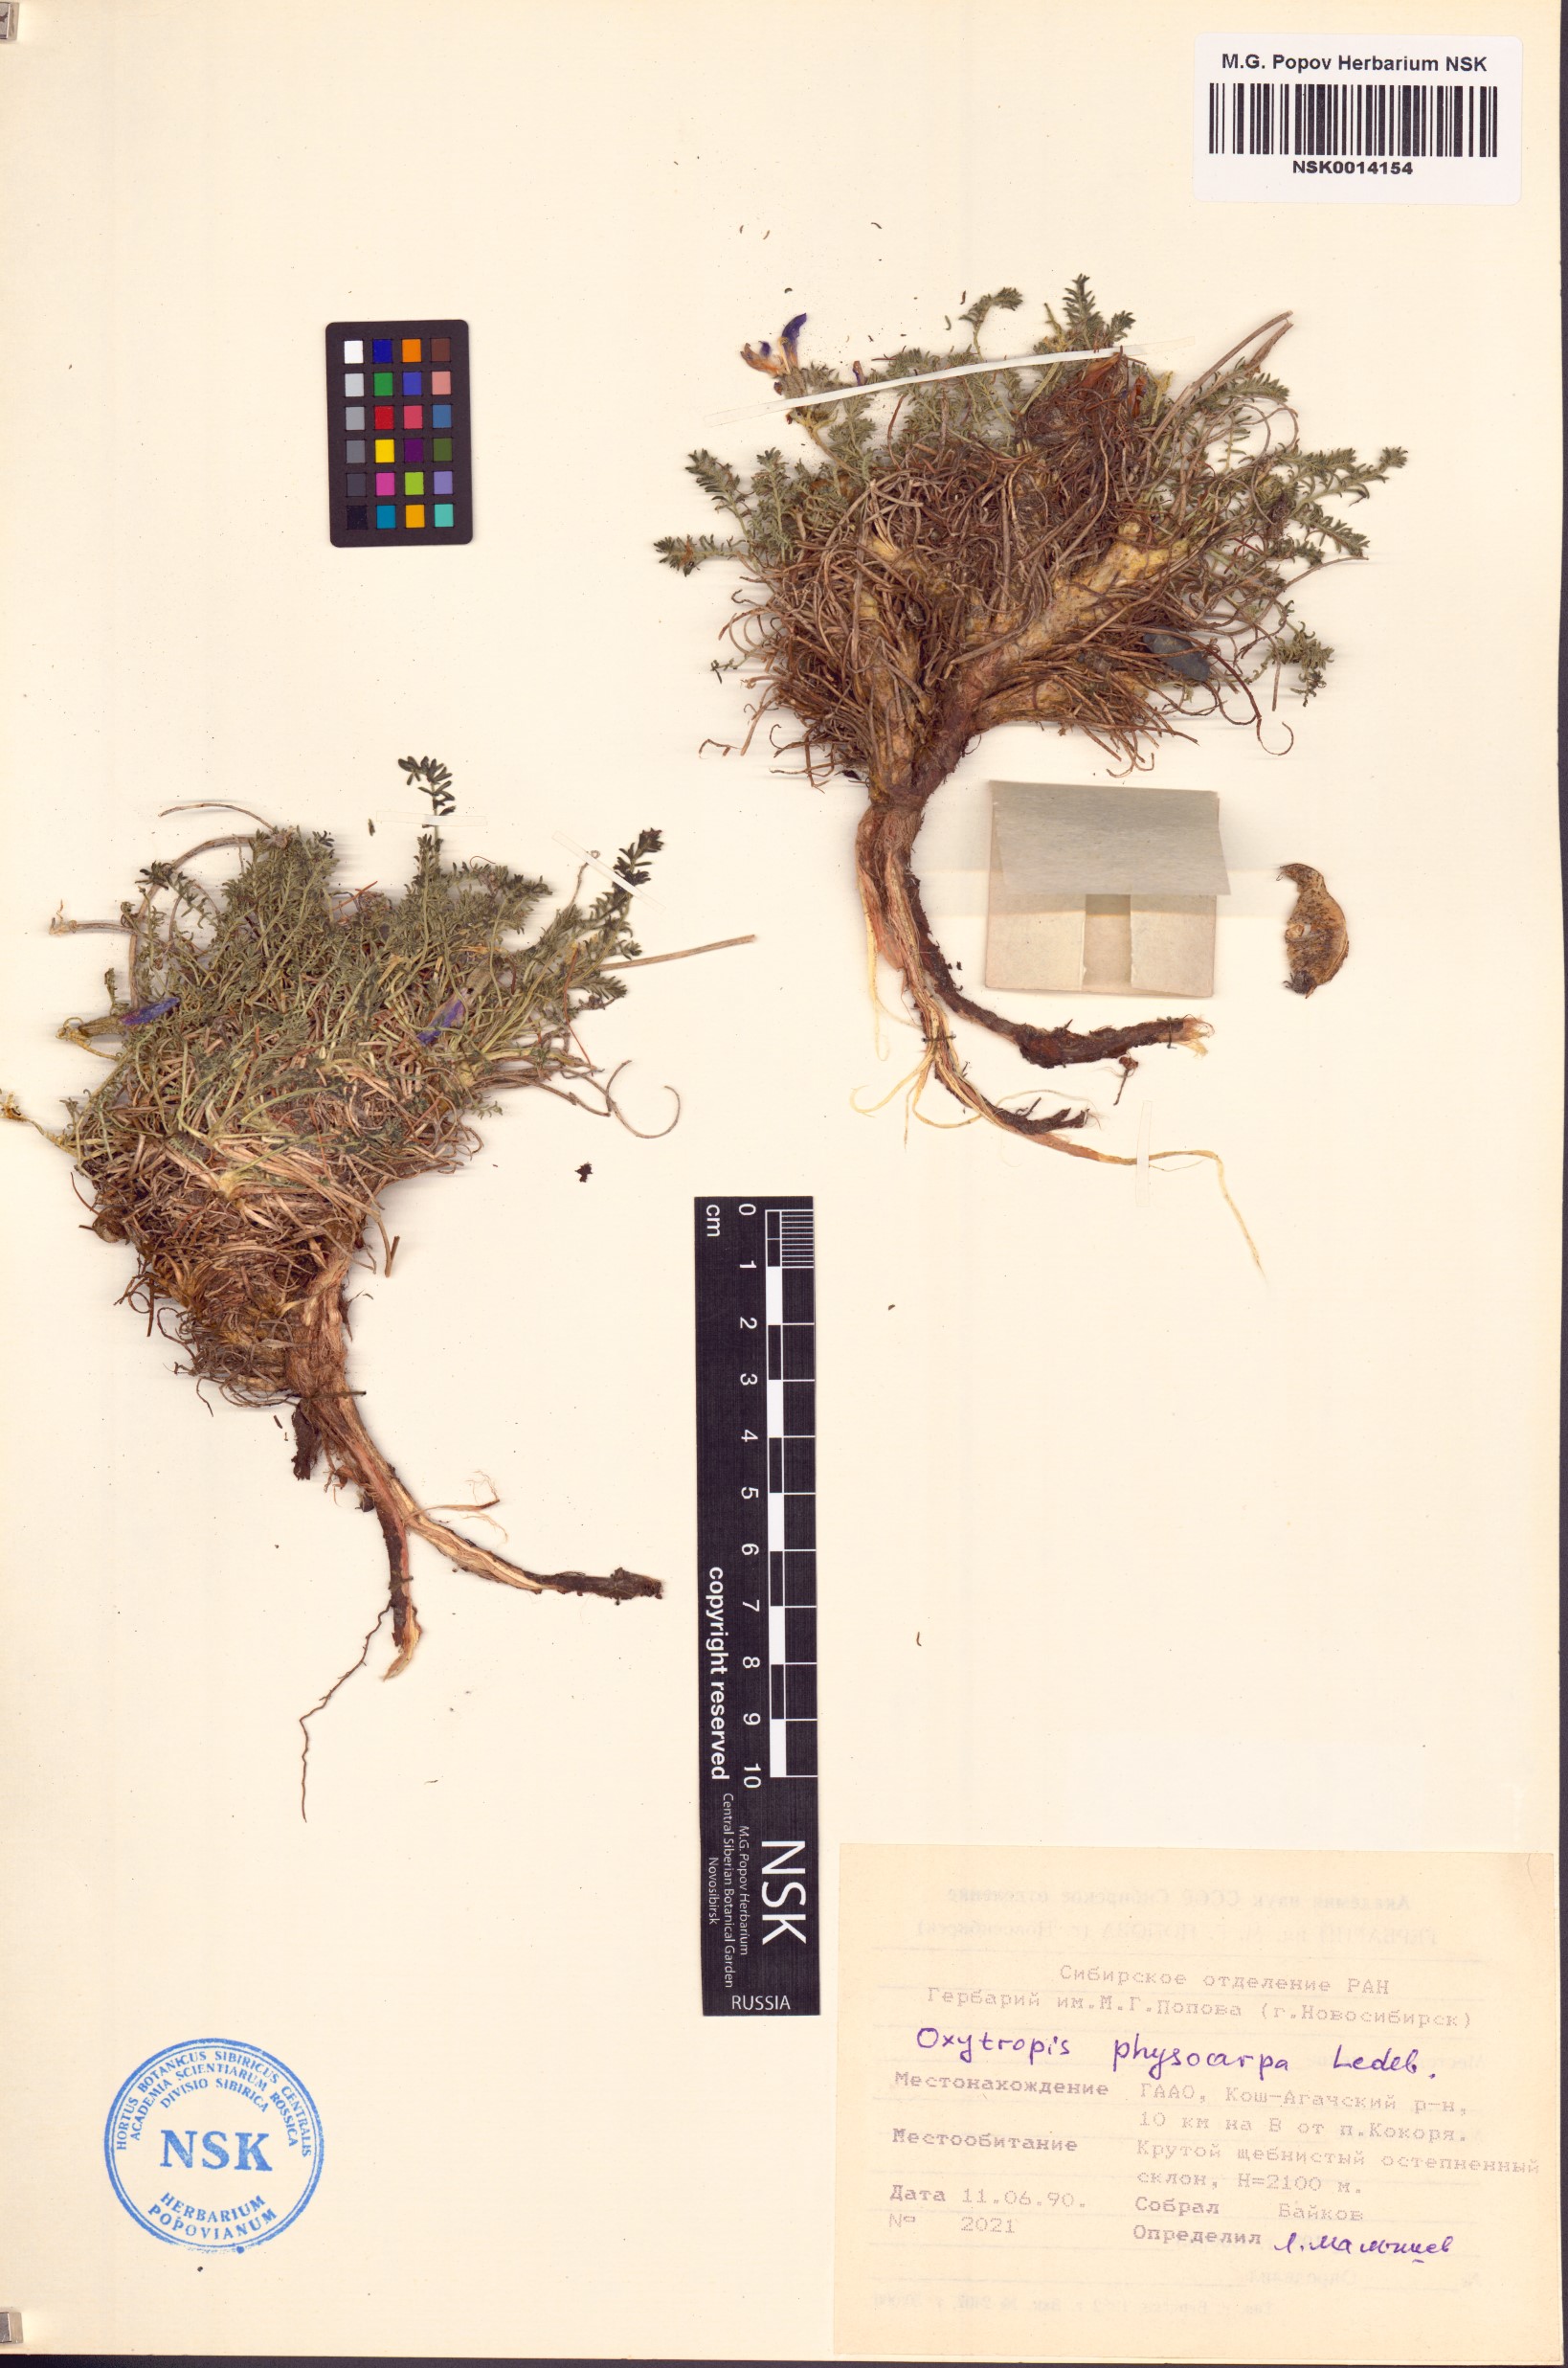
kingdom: Plantae
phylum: Tracheophyta
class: Magnoliopsida
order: Fabales
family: Fabaceae
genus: Oxytropis
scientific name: Oxytropis physocarpa
